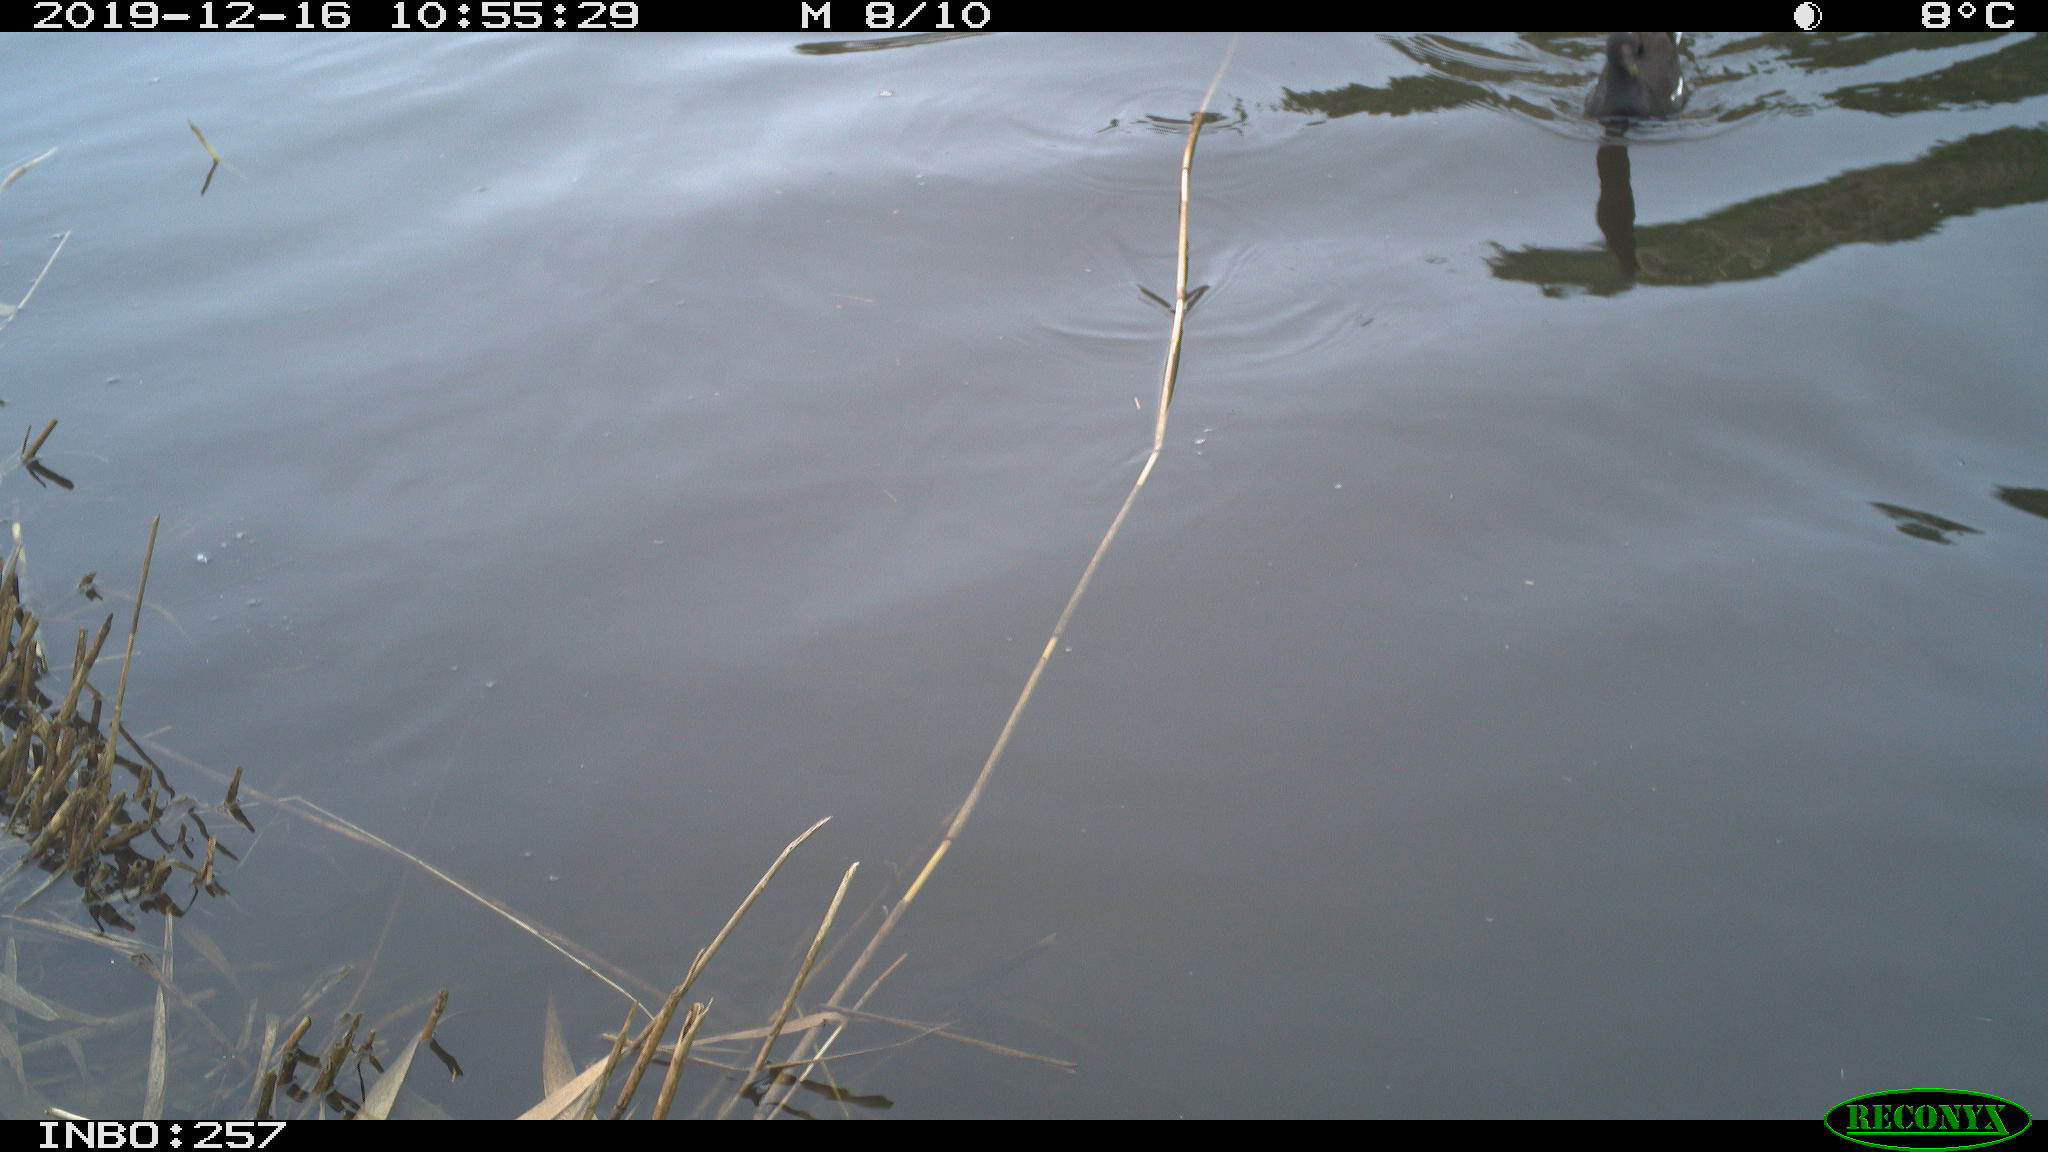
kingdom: Animalia
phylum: Chordata
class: Aves
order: Gruiformes
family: Rallidae
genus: Gallinula
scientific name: Gallinula chloropus
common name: Common moorhen
